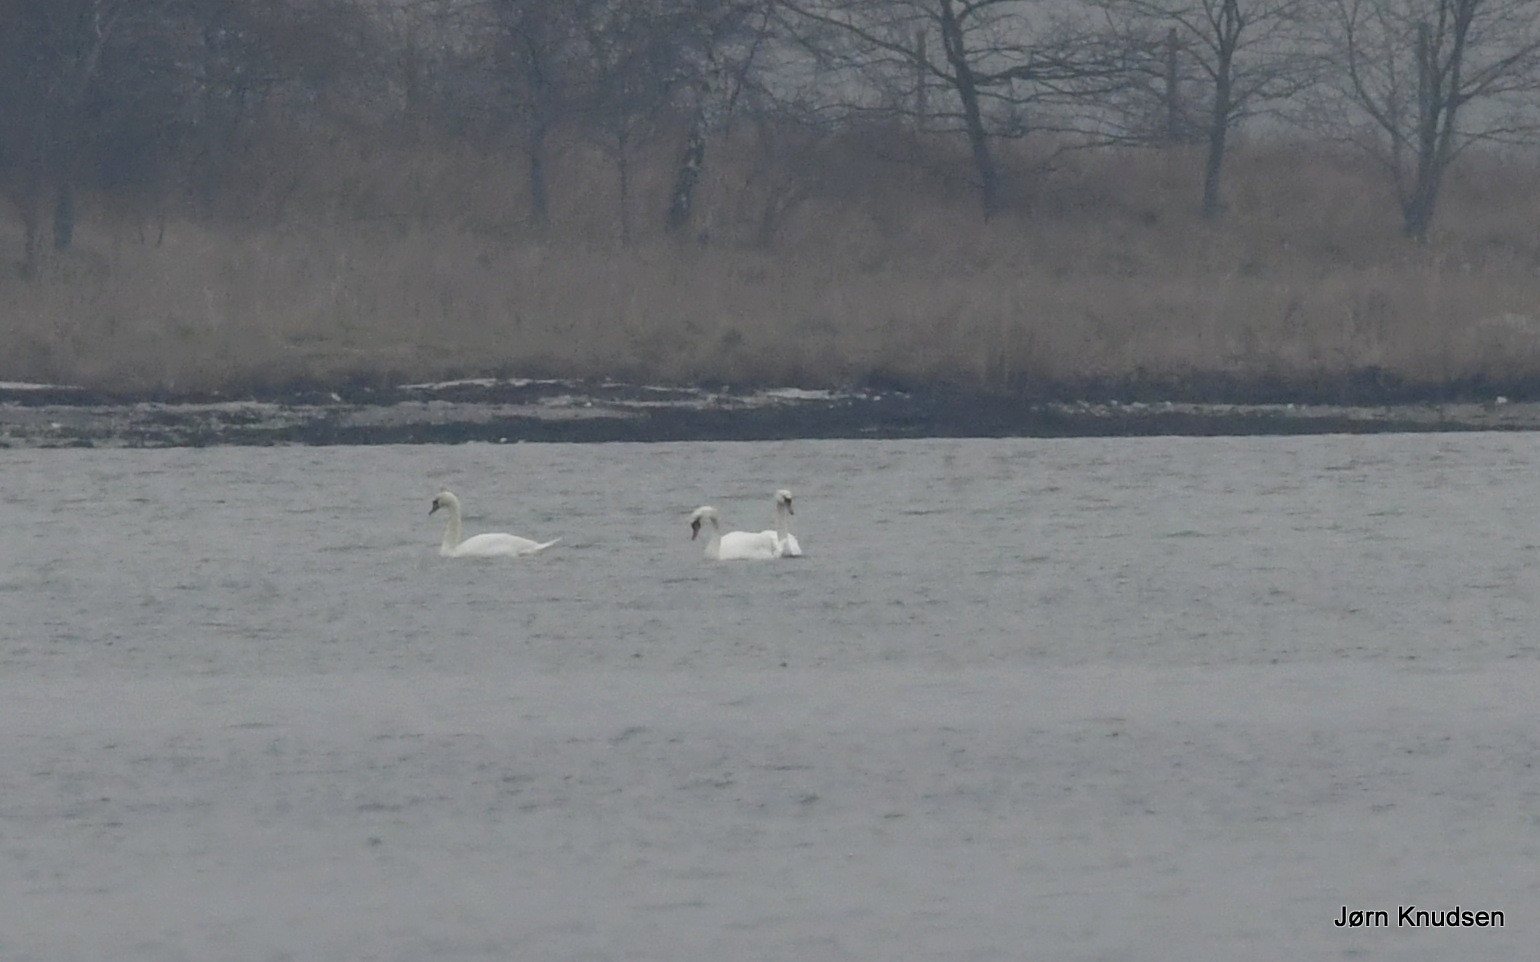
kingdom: Animalia
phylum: Chordata
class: Aves
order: Anseriformes
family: Anatidae
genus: Cygnus
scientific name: Cygnus olor
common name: Knopsvane
